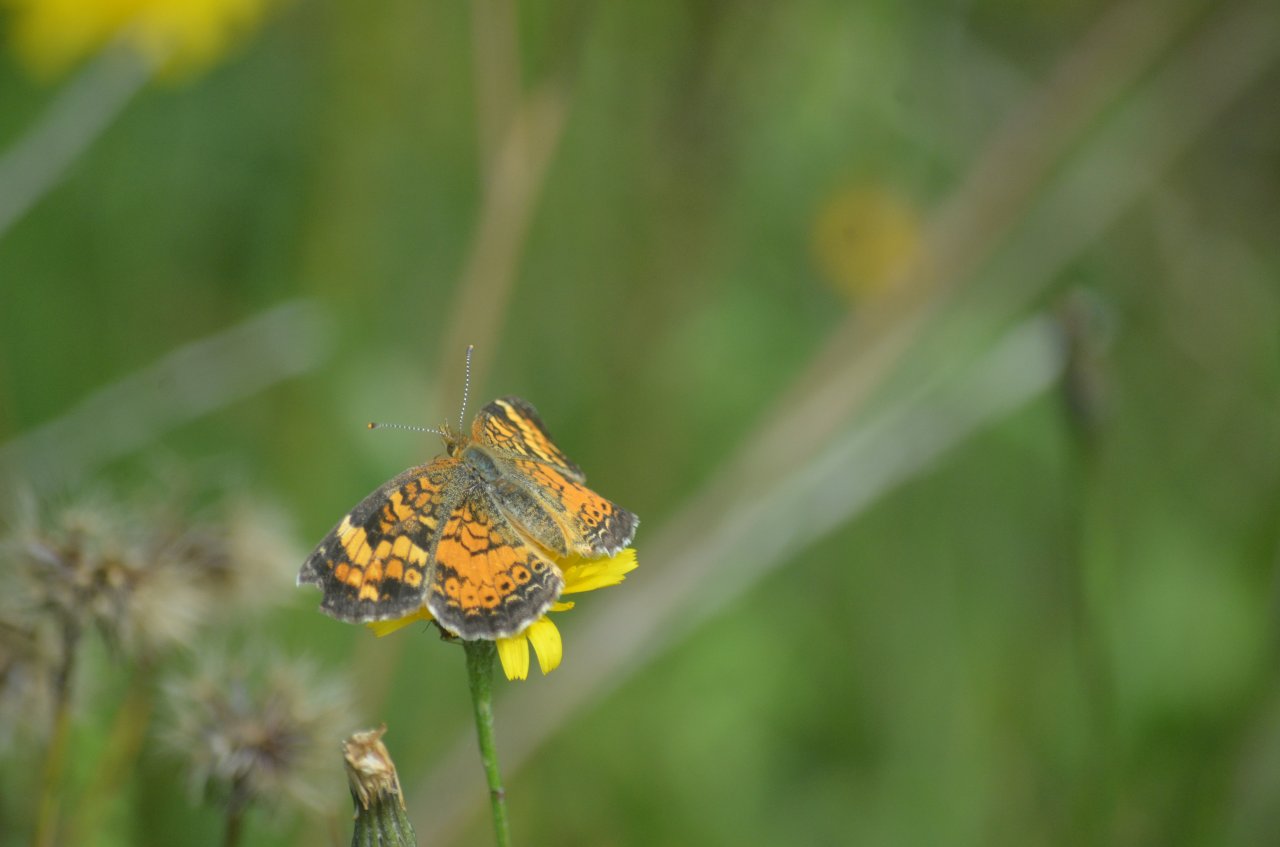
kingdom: Animalia
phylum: Arthropoda
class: Insecta
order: Lepidoptera
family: Nymphalidae
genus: Phyciodes
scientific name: Phyciodes tharos
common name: Northern Crescent
